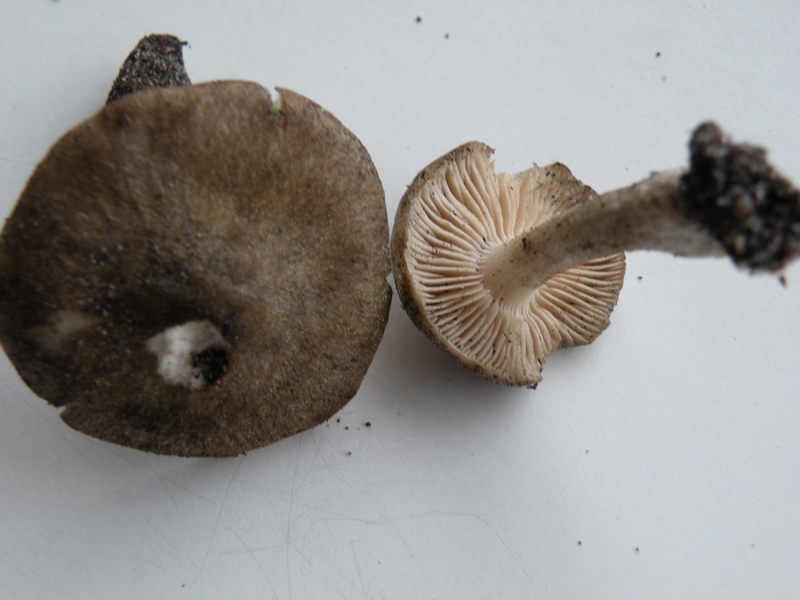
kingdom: Fungi
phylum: Basidiomycota
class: Agaricomycetes
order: Agaricales
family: Entolomataceae
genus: Entoloma
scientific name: Entoloma aprile
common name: maj-rødblad
